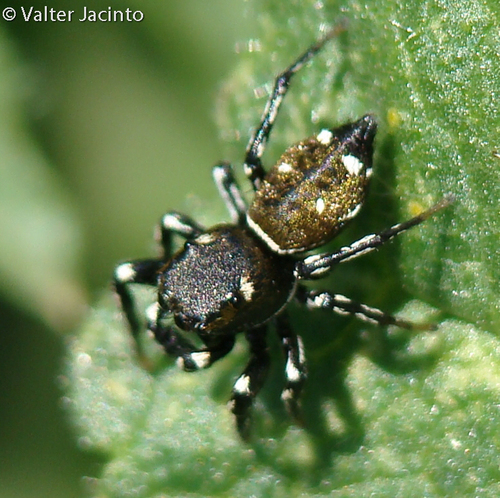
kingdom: Animalia
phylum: Arthropoda
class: Arachnida
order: Araneae
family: Salticidae
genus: Heliophanus
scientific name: Heliophanus kochii
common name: Sun jumping spider
